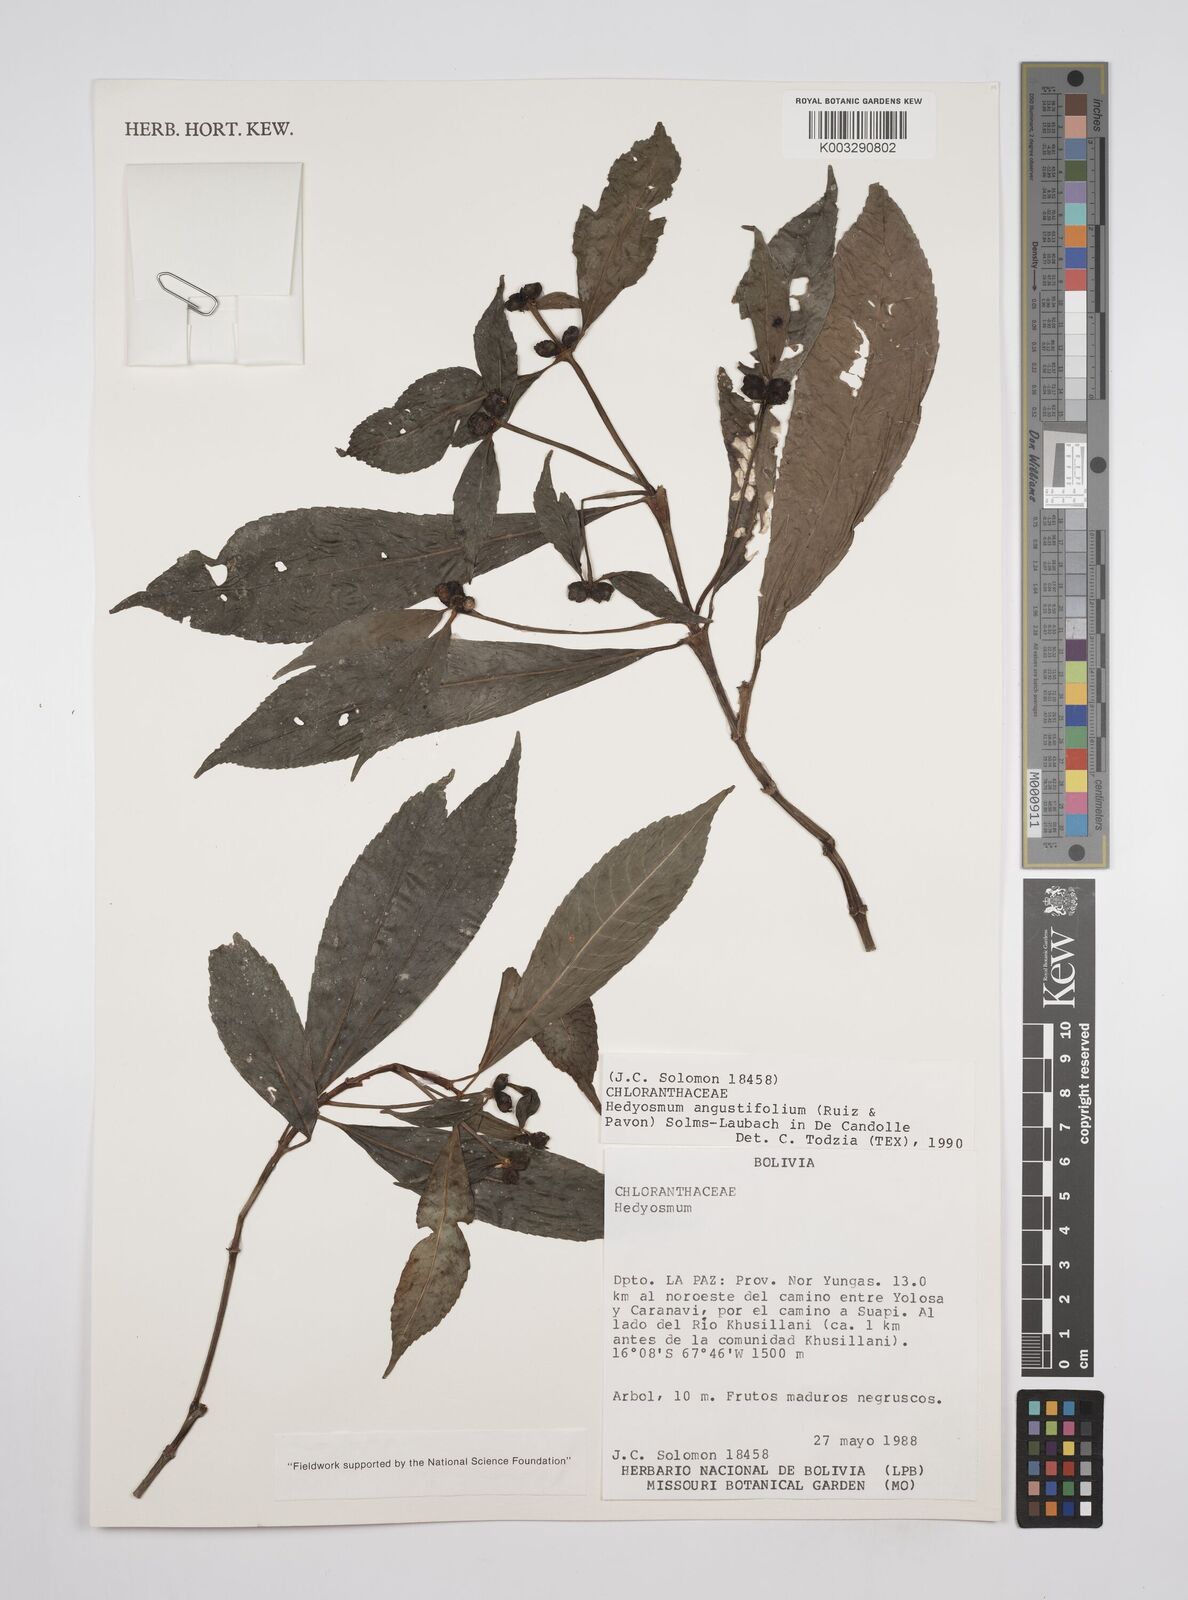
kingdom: Plantae
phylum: Tracheophyta
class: Magnoliopsida
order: Chloranthales
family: Chloranthaceae
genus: Hedyosmum
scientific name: Hedyosmum angustifolium
